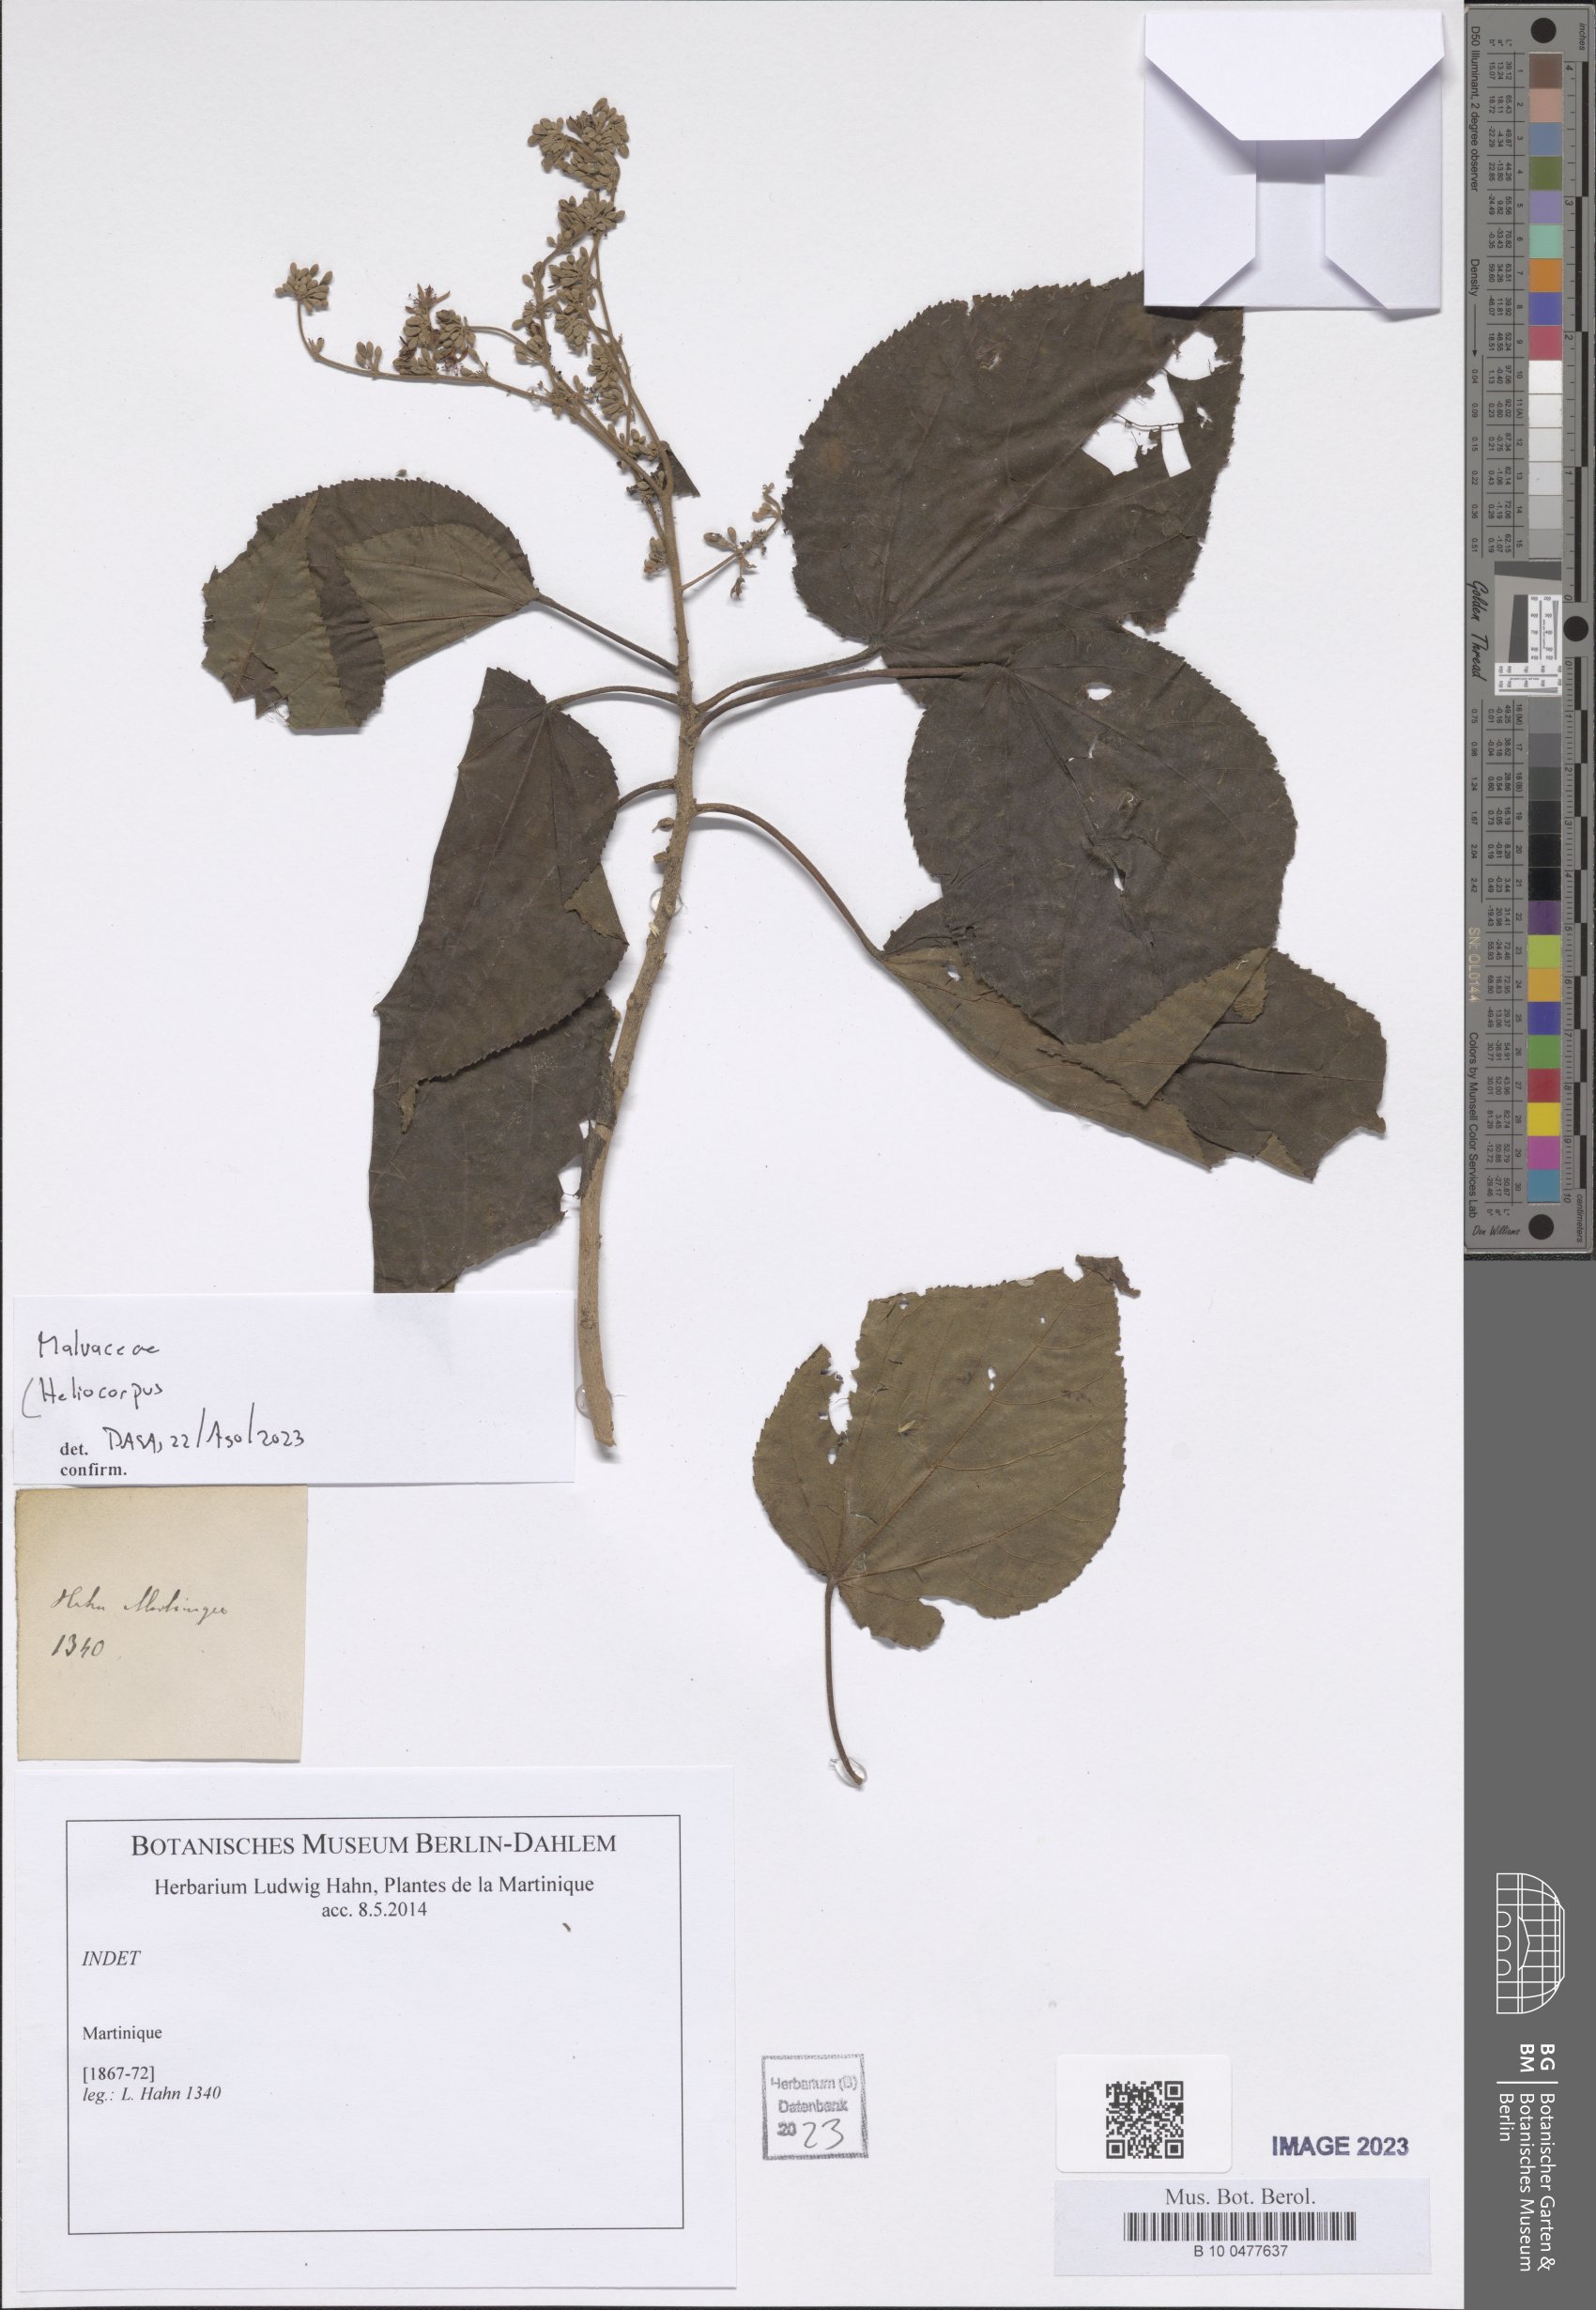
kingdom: Plantae
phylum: Tracheophyta
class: Magnoliopsida
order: Malvales
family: Malvaceae
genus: Heliocarpus
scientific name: Heliocarpus
